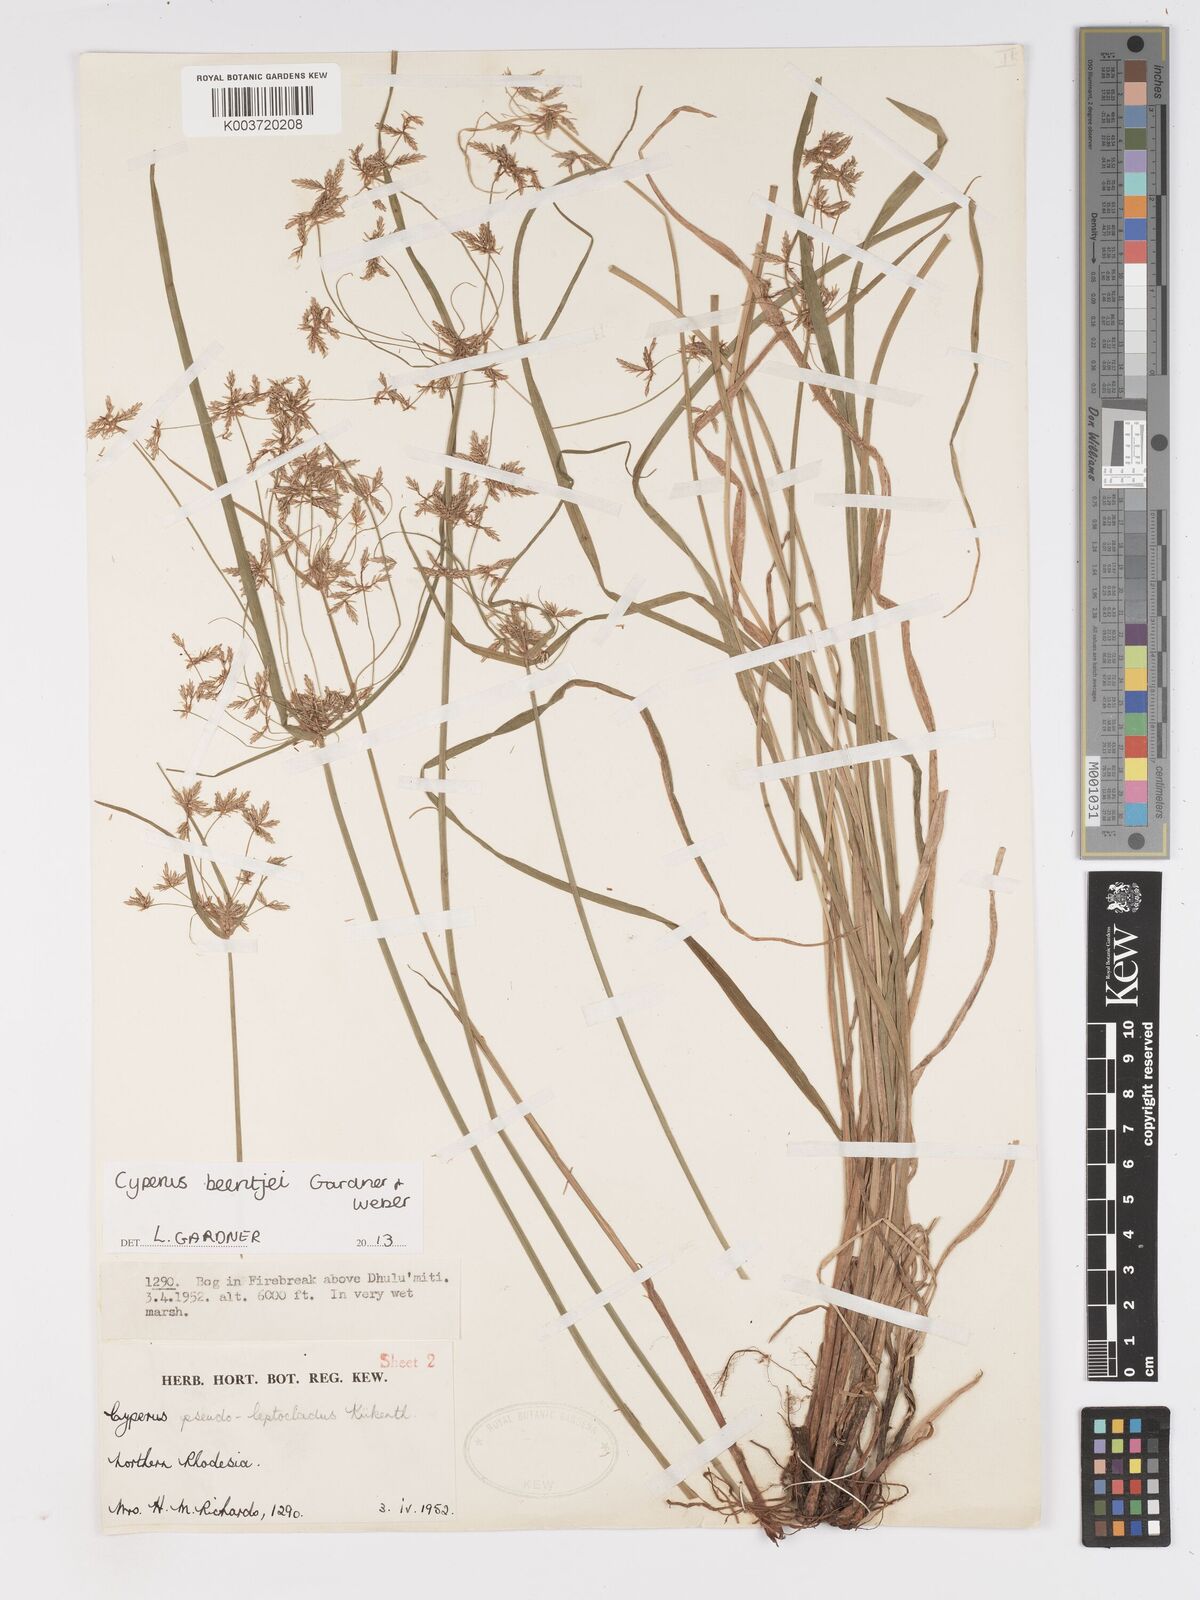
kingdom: Plantae
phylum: Tracheophyta
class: Liliopsida
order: Poales
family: Cyperaceae
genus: Cyperus
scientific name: Cyperus beentjei
